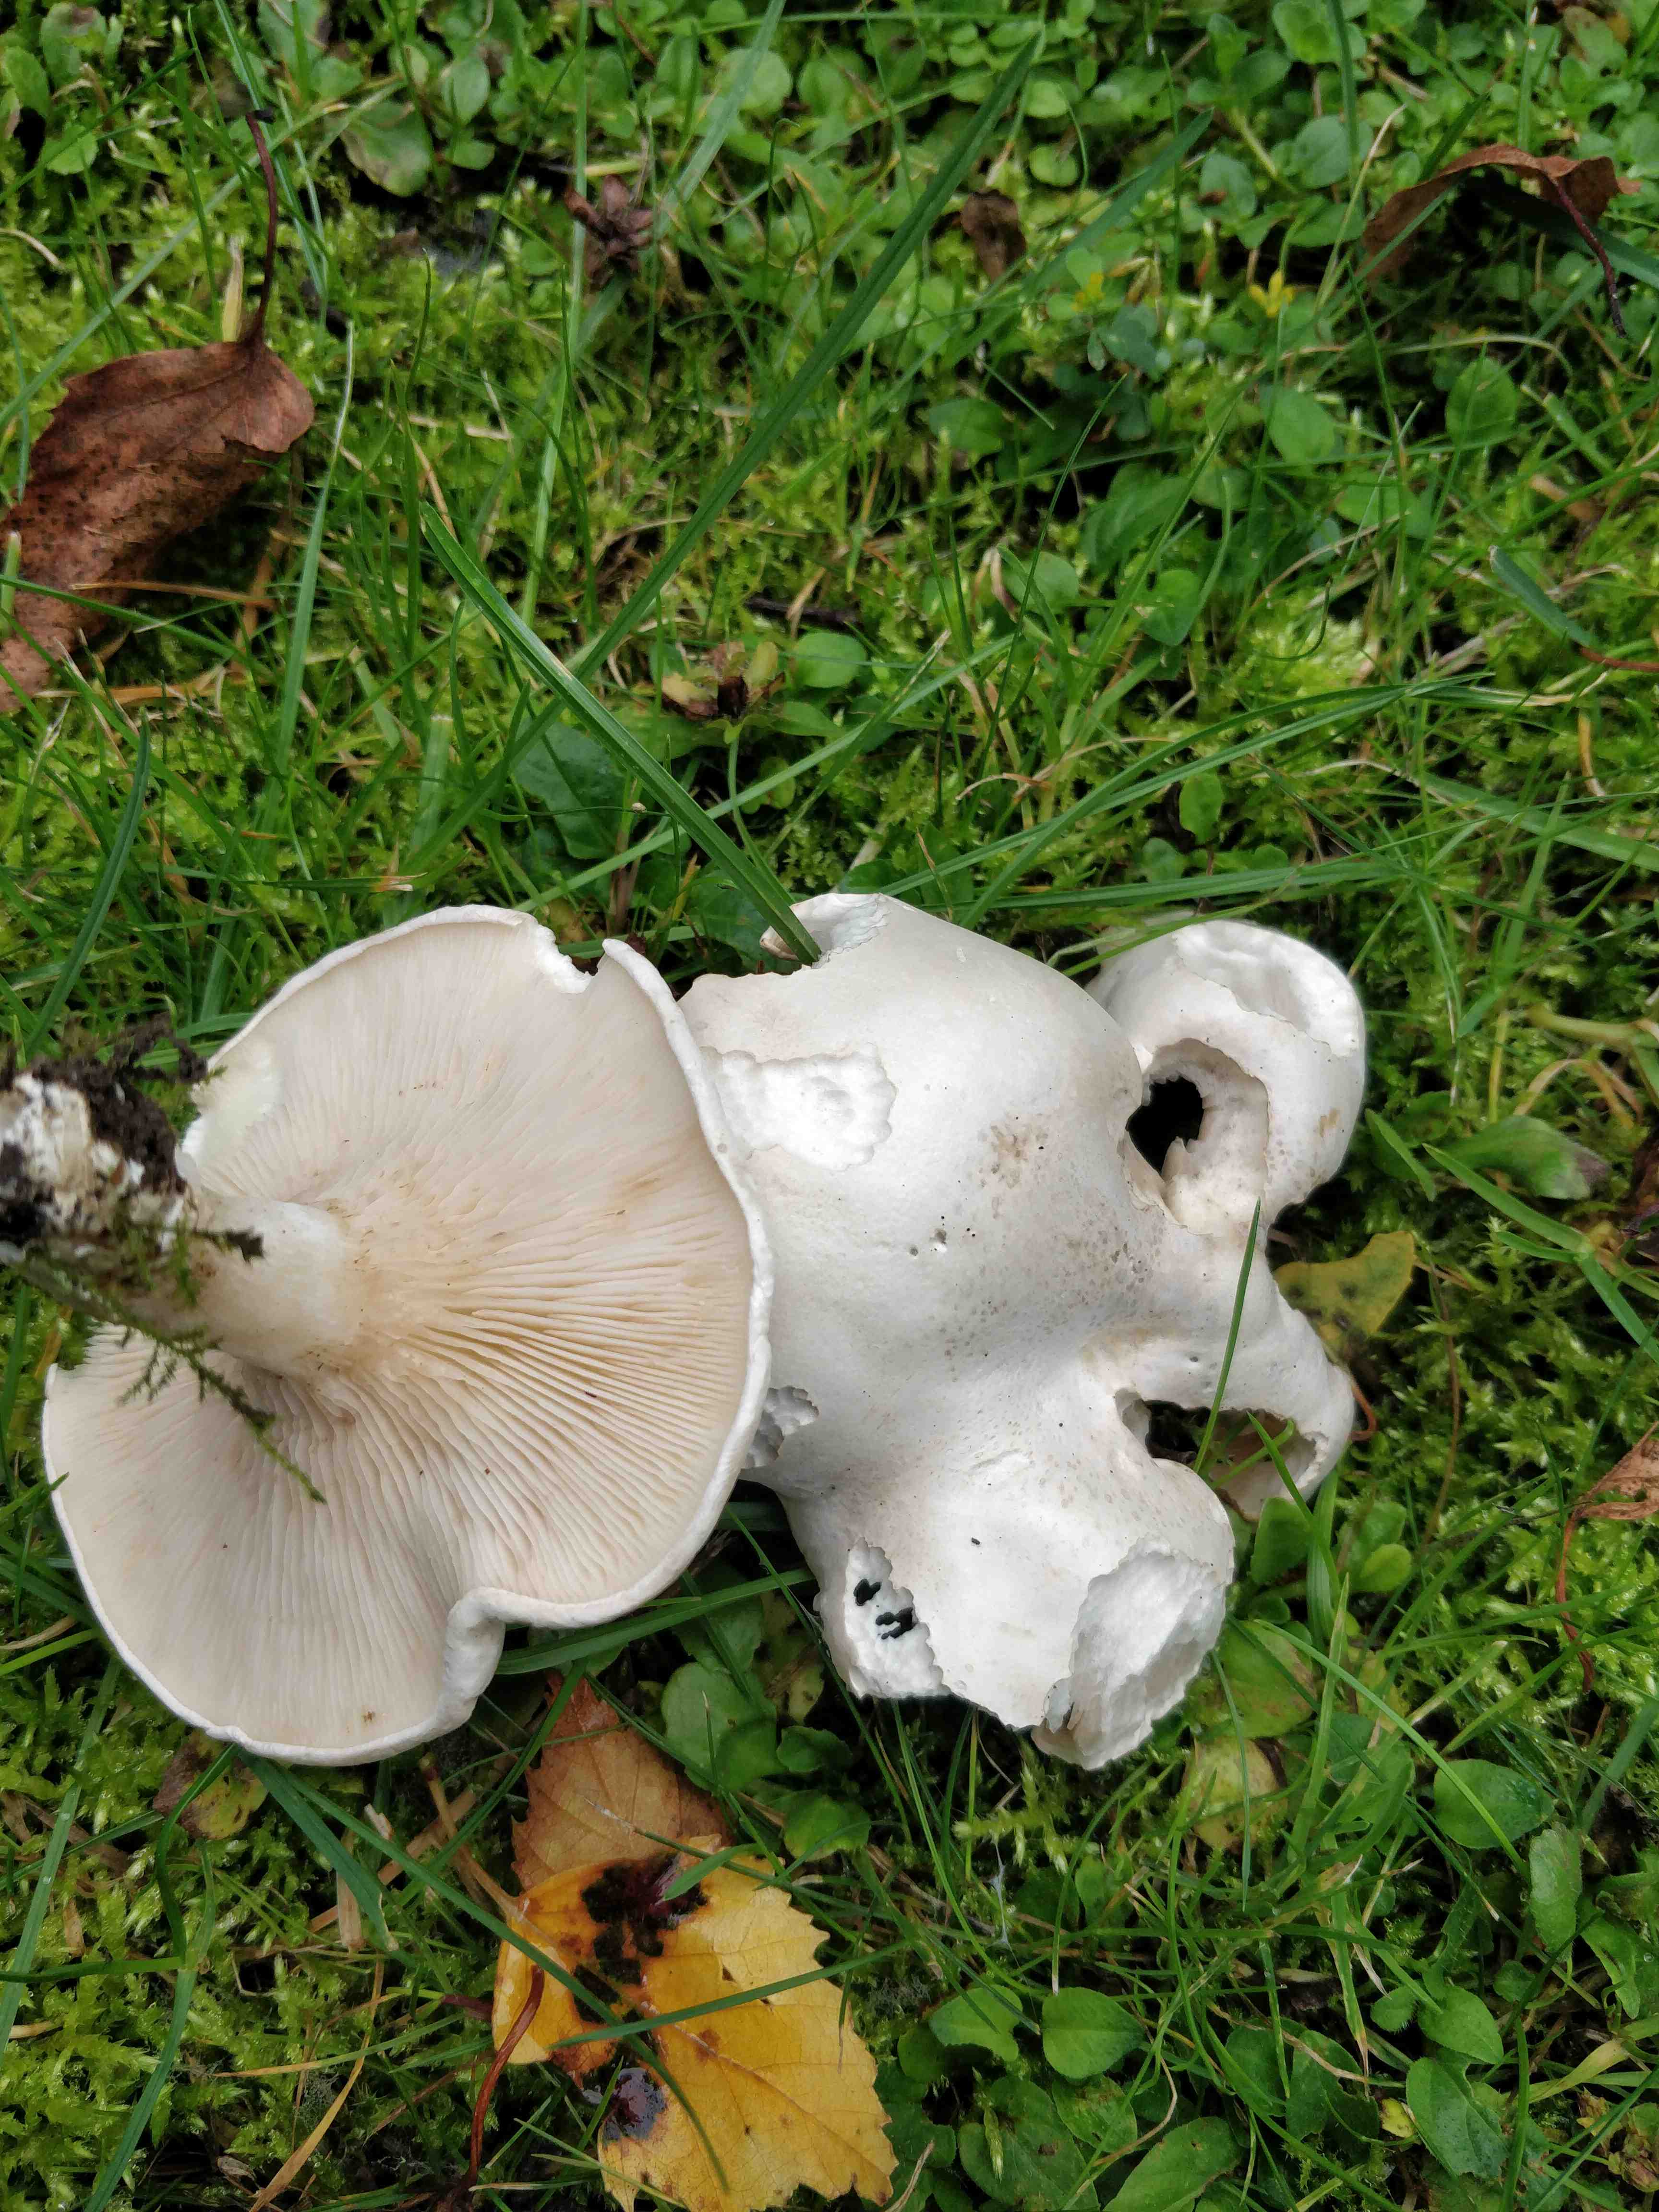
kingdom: Fungi
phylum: Basidiomycota
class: Agaricomycetes
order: Agaricales
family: Entolomataceae
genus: Clitopilus
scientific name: Clitopilus prunulus
